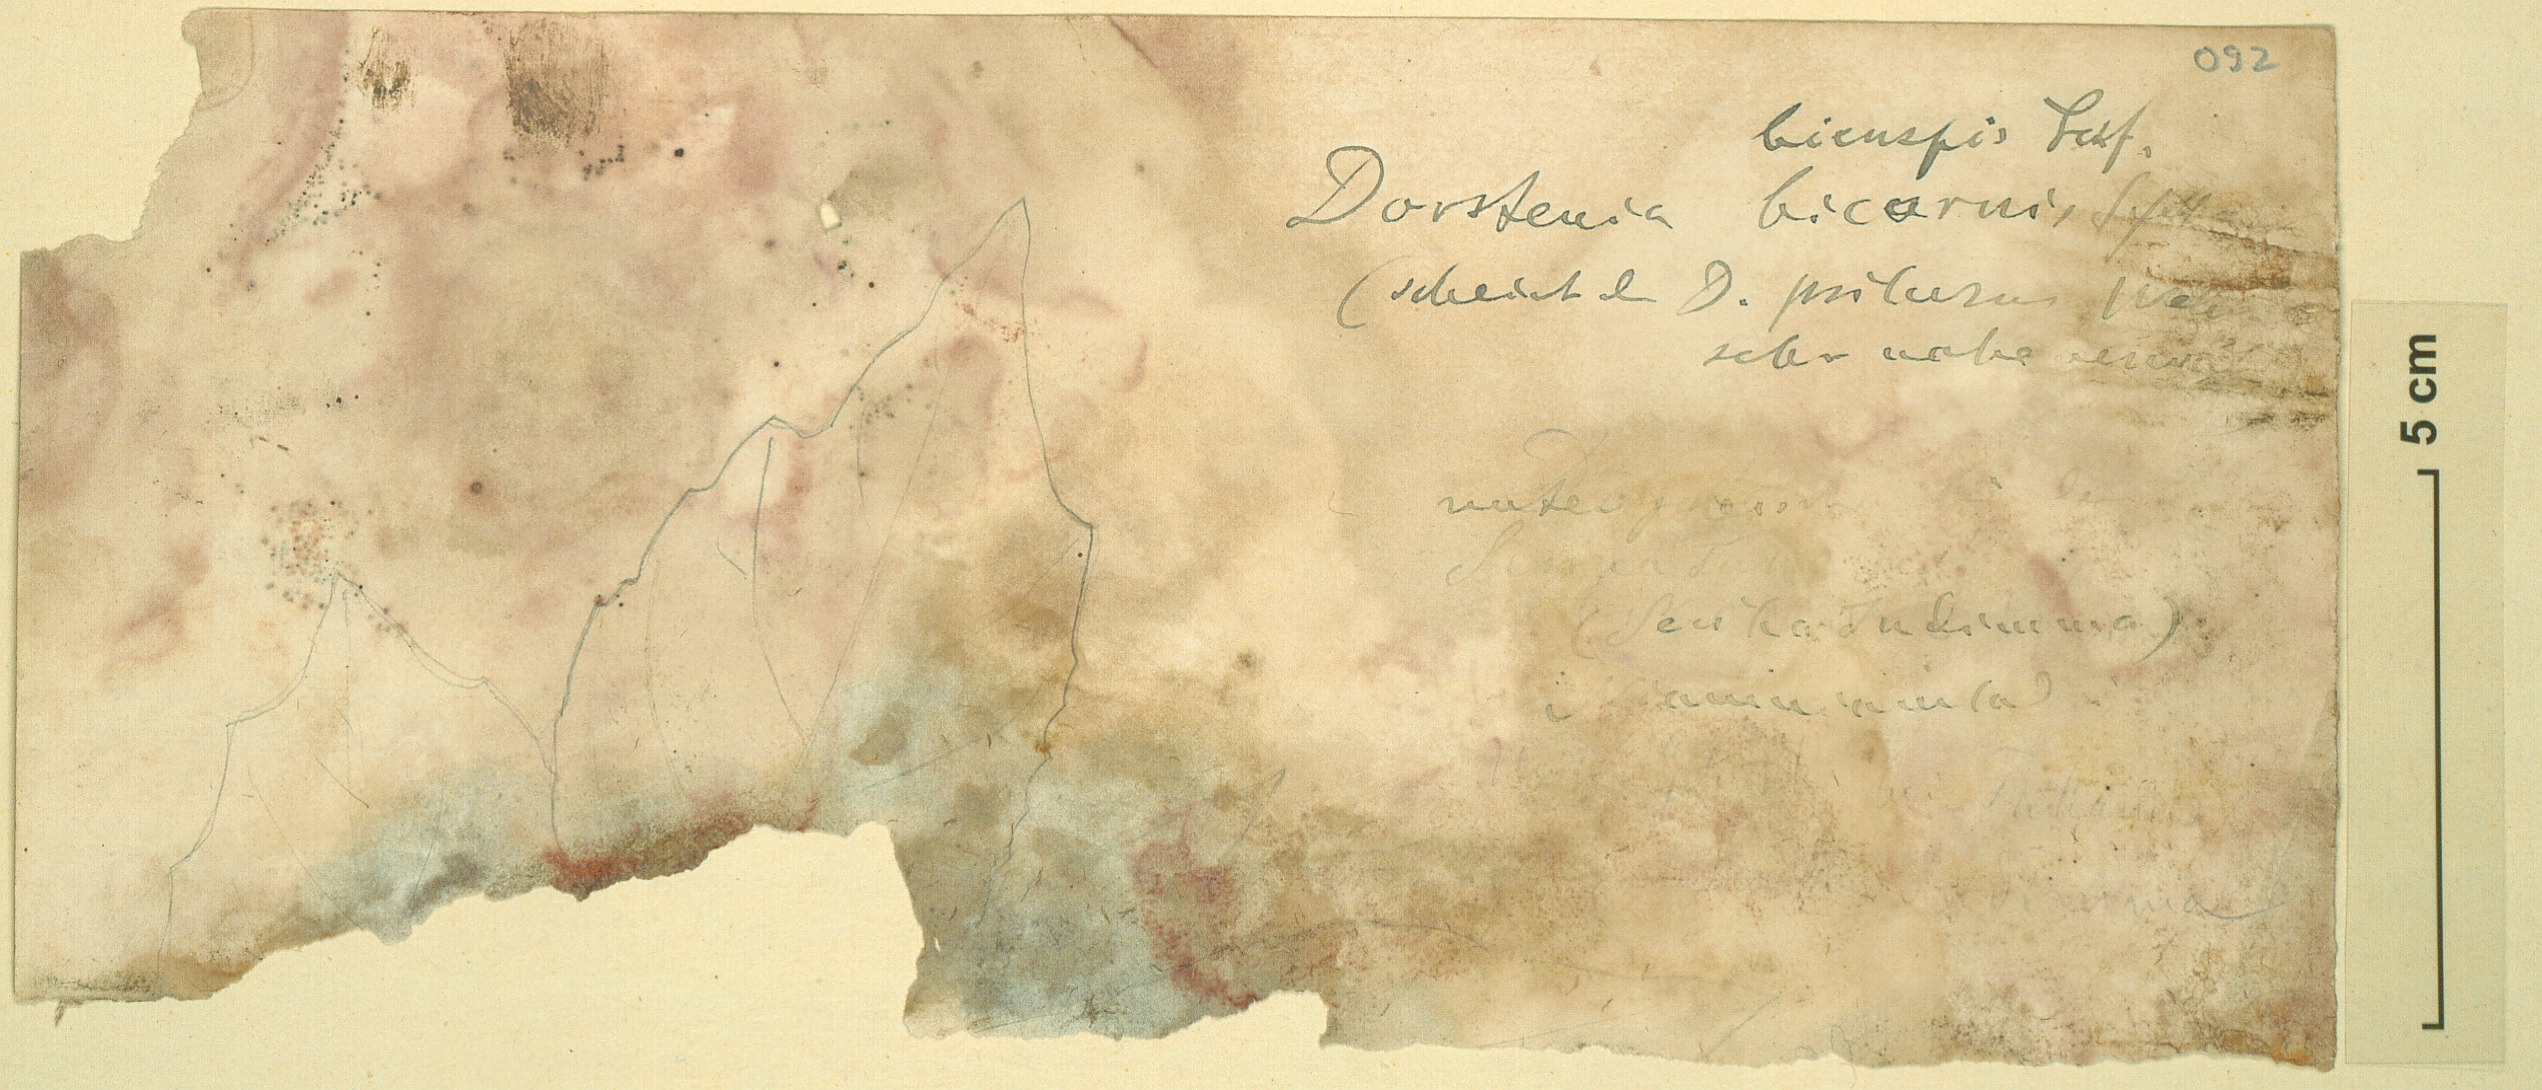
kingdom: Plantae
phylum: Tracheophyta
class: Magnoliopsida
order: Rosales
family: Moraceae
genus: Dorstenia
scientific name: Dorstenia psilurus
